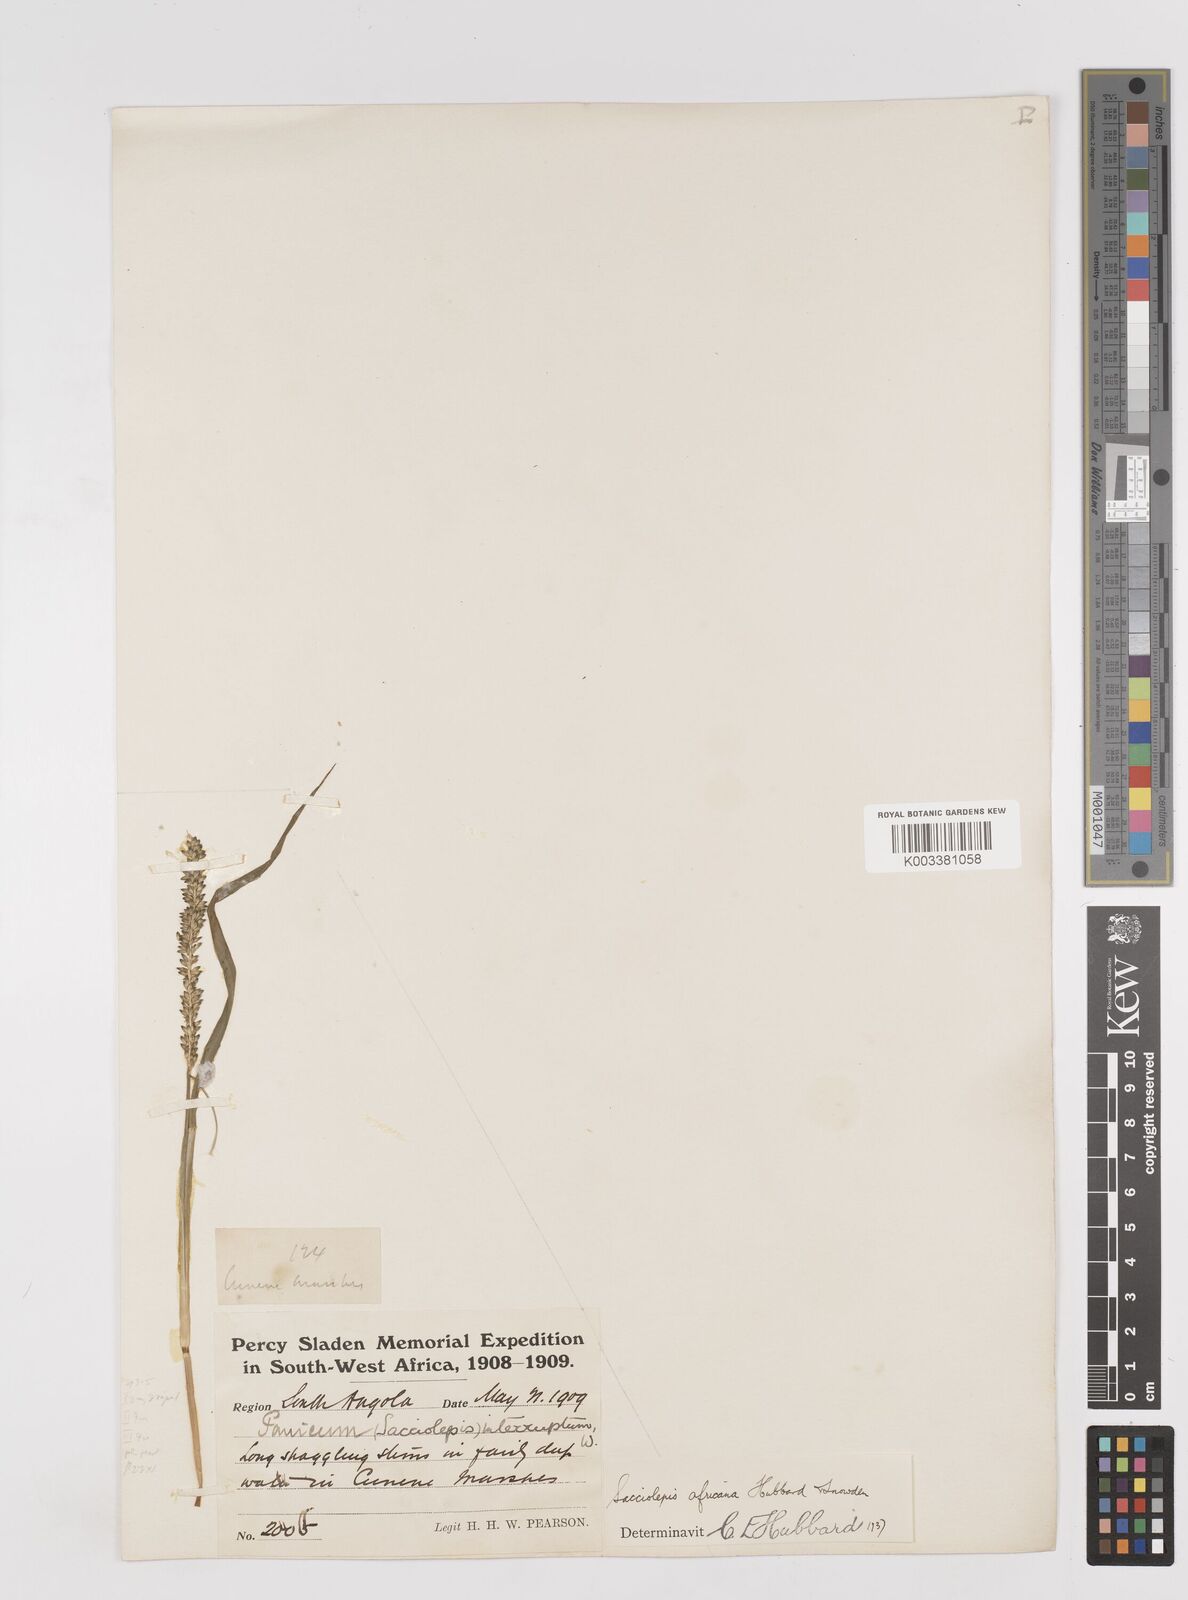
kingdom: Plantae
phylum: Tracheophyta
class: Liliopsida
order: Poales
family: Poaceae
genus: Sacciolepis
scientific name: Sacciolepis africana
